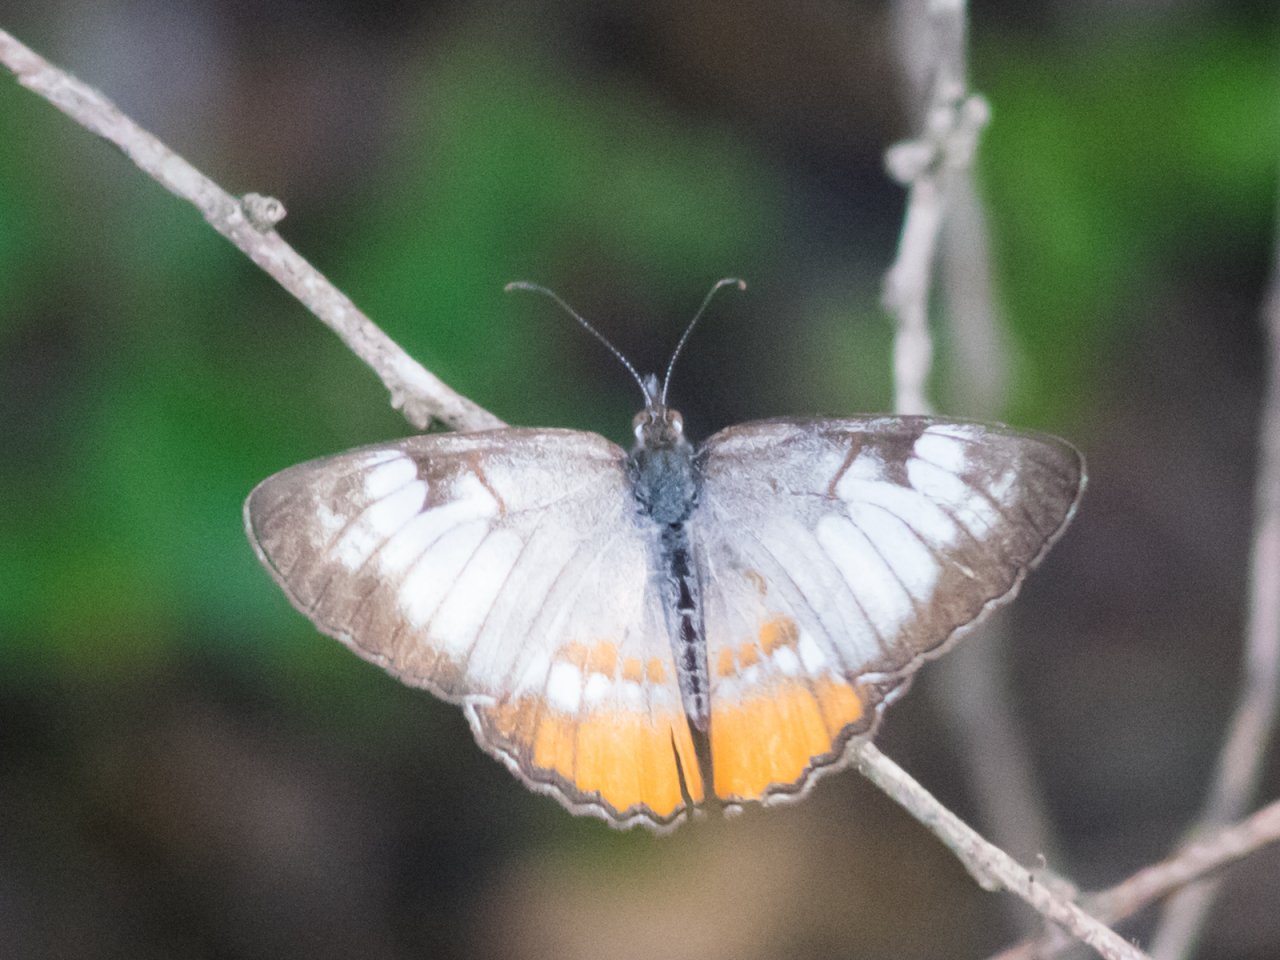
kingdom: Animalia
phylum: Arthropoda
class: Insecta
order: Lepidoptera
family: Nymphalidae
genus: Mestra
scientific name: Mestra amymone
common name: Common Mestra
